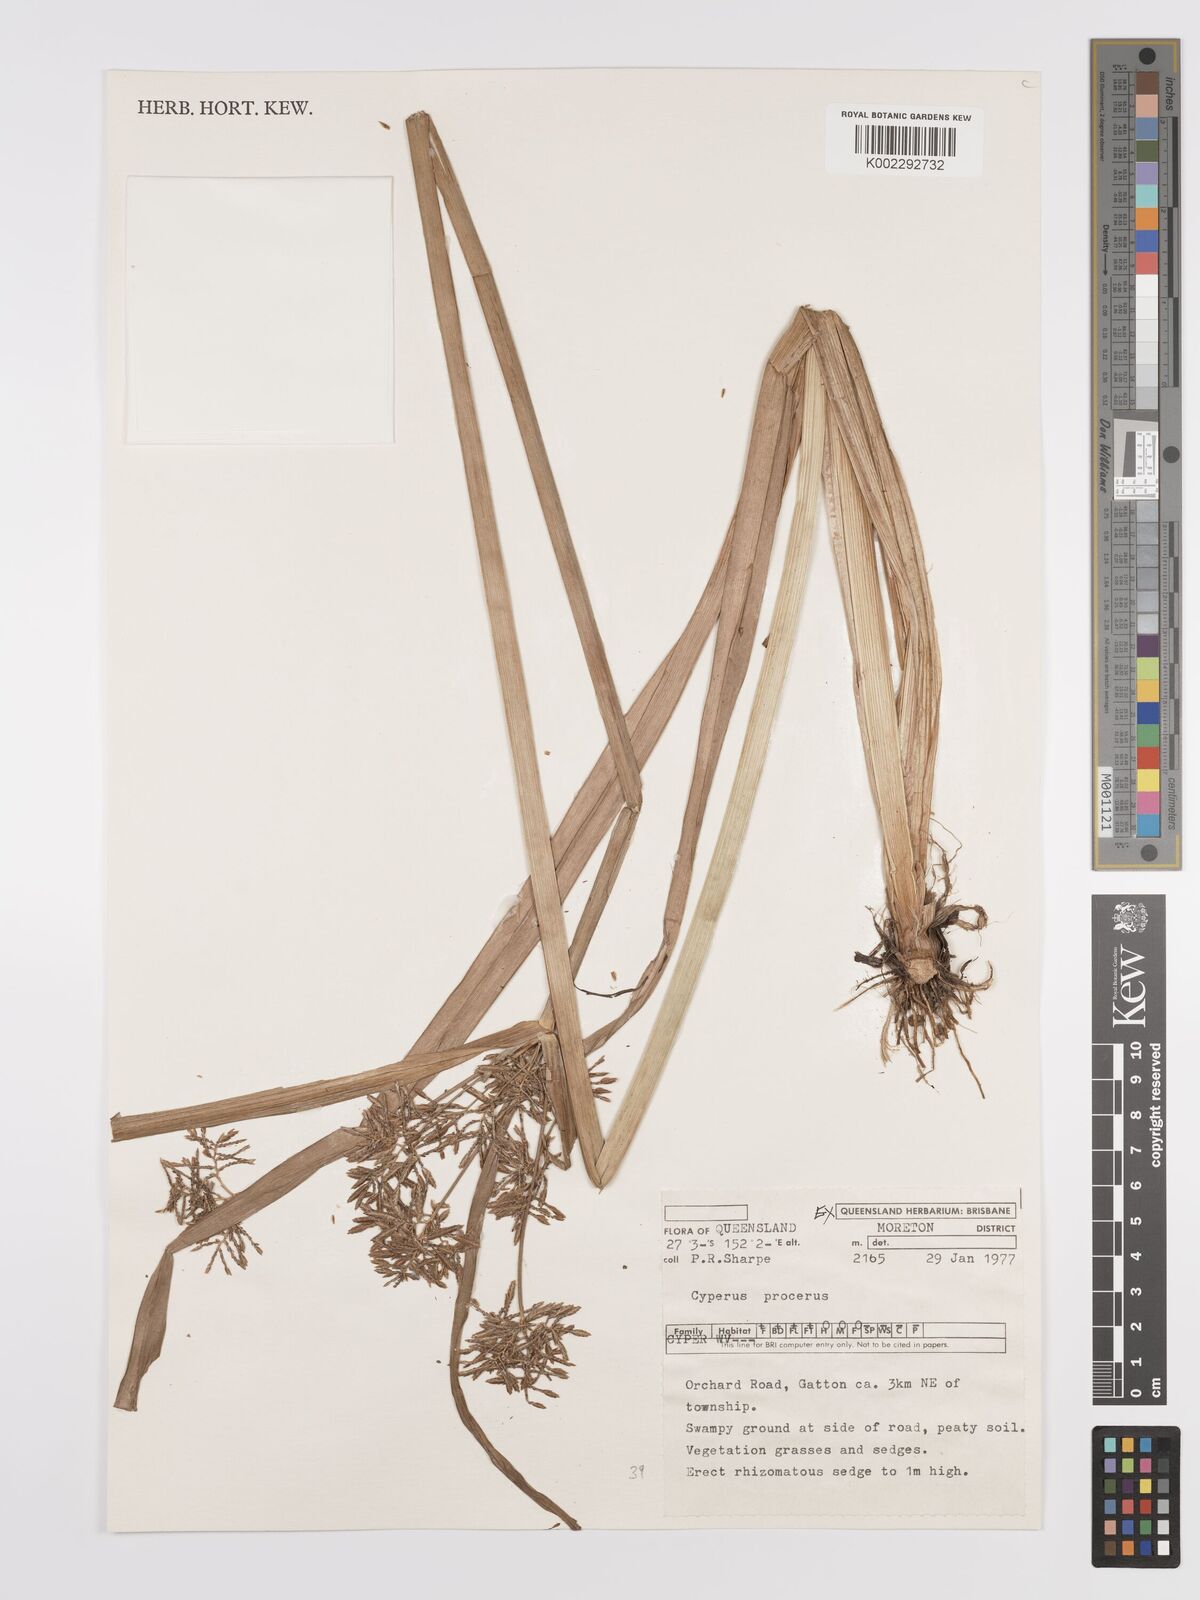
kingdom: Plantae
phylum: Tracheophyta
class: Liliopsida
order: Poales
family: Cyperaceae
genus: Cyperus
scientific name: Cyperus procerus
